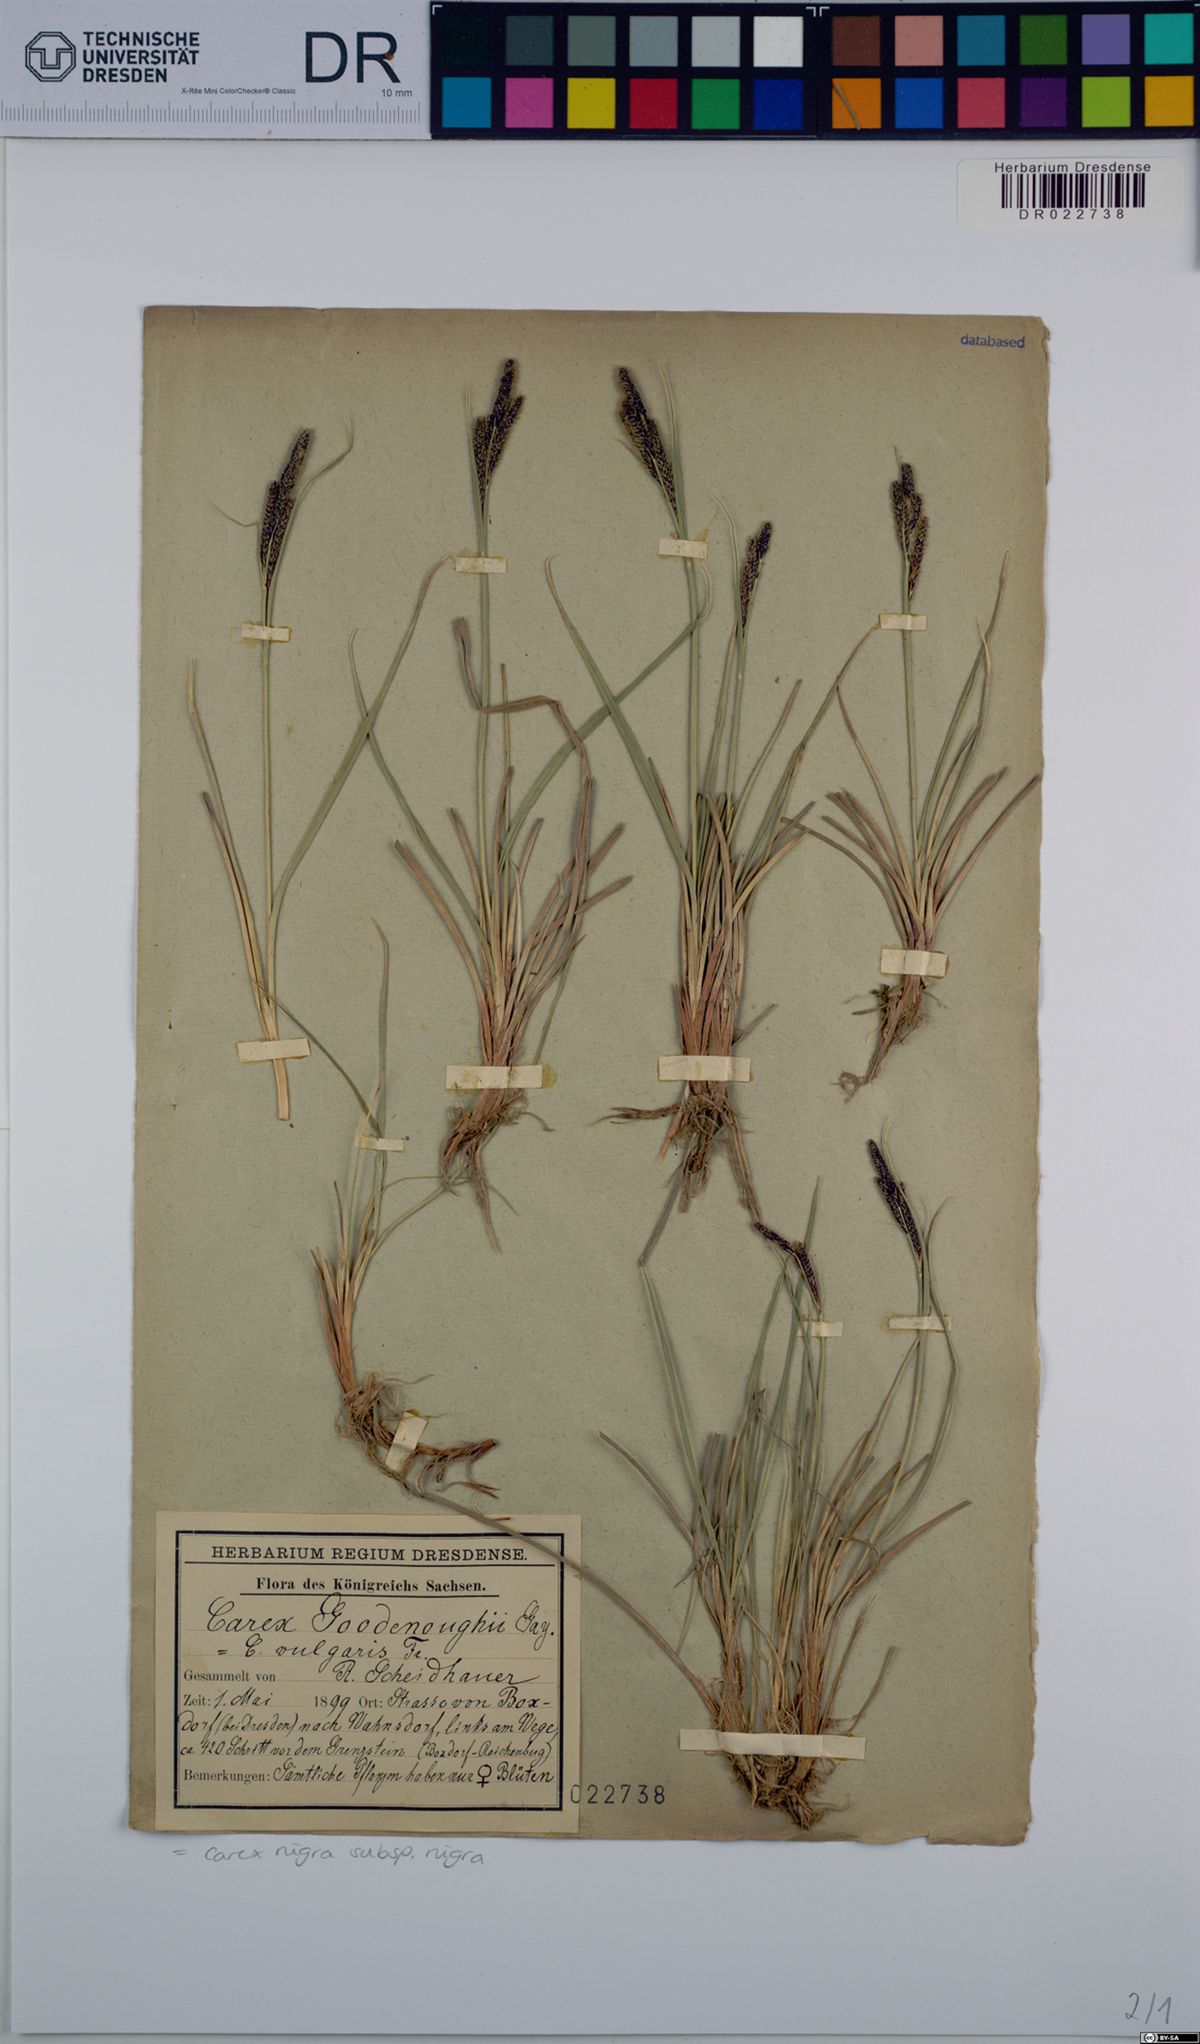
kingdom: Plantae
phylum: Tracheophyta
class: Liliopsida
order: Poales
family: Cyperaceae
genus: Carex
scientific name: Carex nigra
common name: Common sedge
